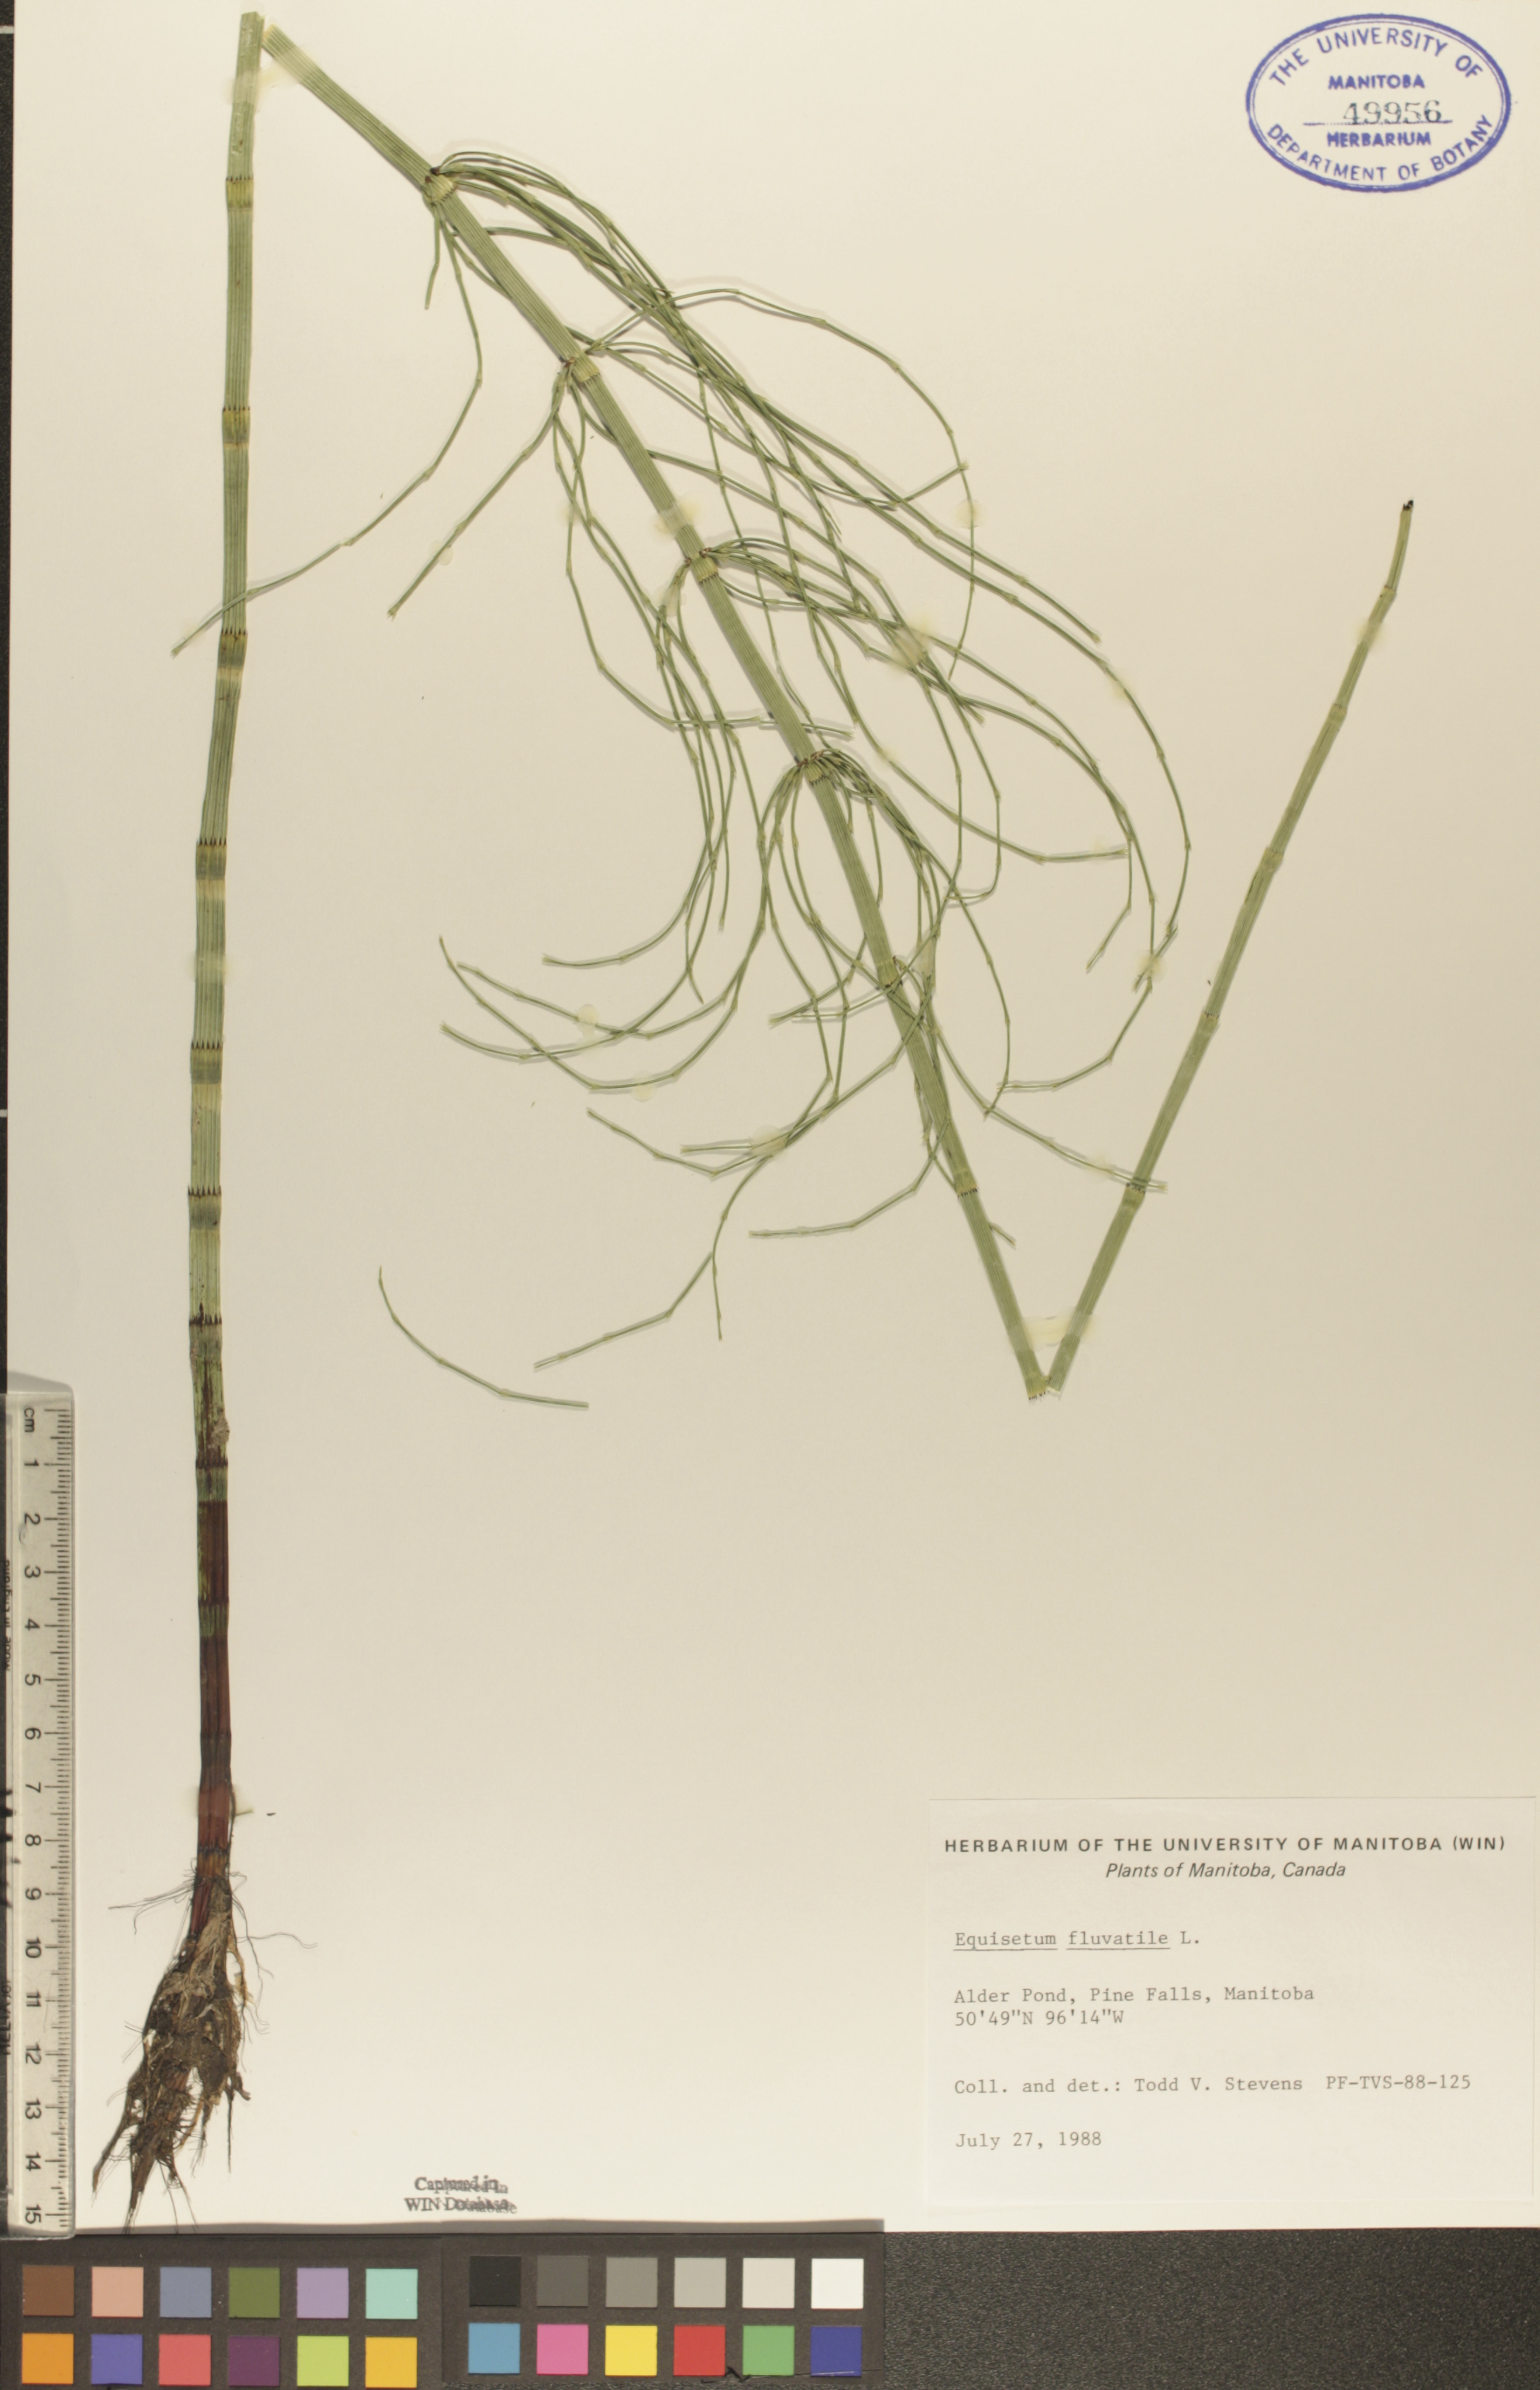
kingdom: Plantae
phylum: Tracheophyta
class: Polypodiopsida
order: Equisetales
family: Equisetaceae
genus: Equisetum
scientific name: Equisetum fluviatile
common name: Water horsetail
